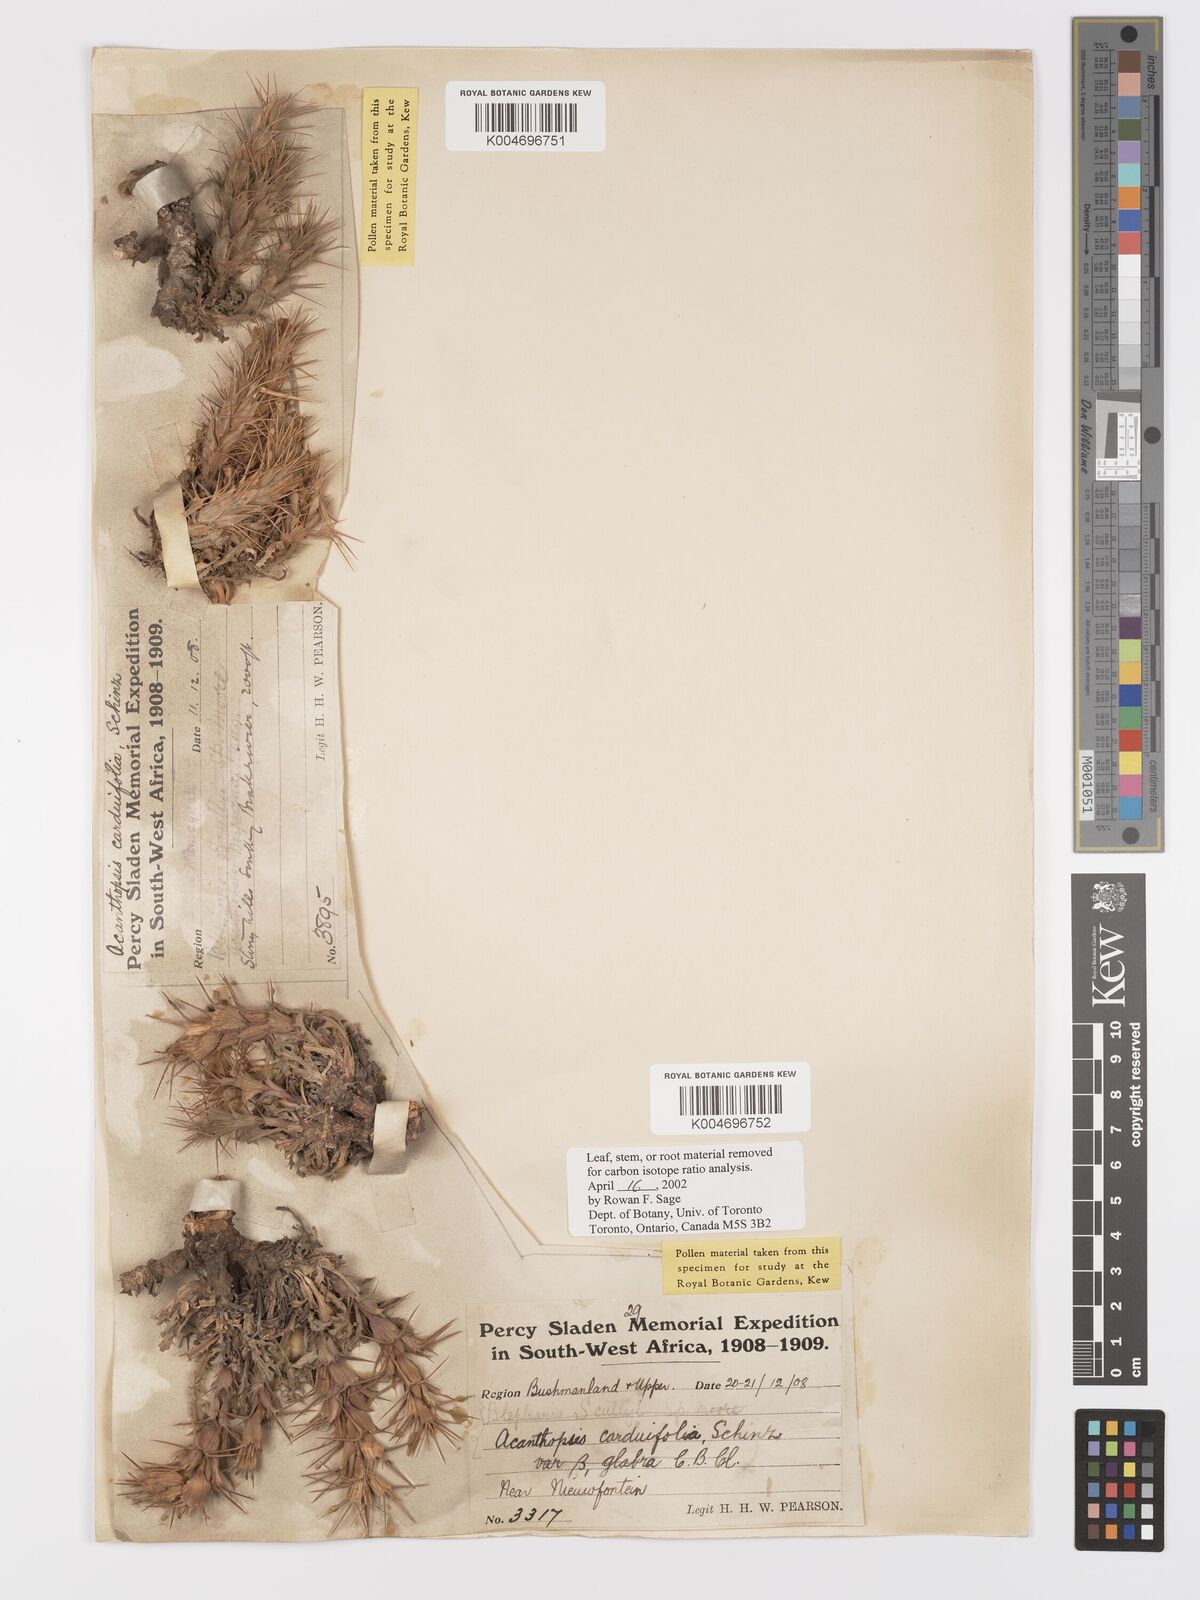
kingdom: Plantae
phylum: Tracheophyta
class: Magnoliopsida
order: Lamiales
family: Acanthaceae
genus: Acanthopsis
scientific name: Acanthopsis carduifolia
